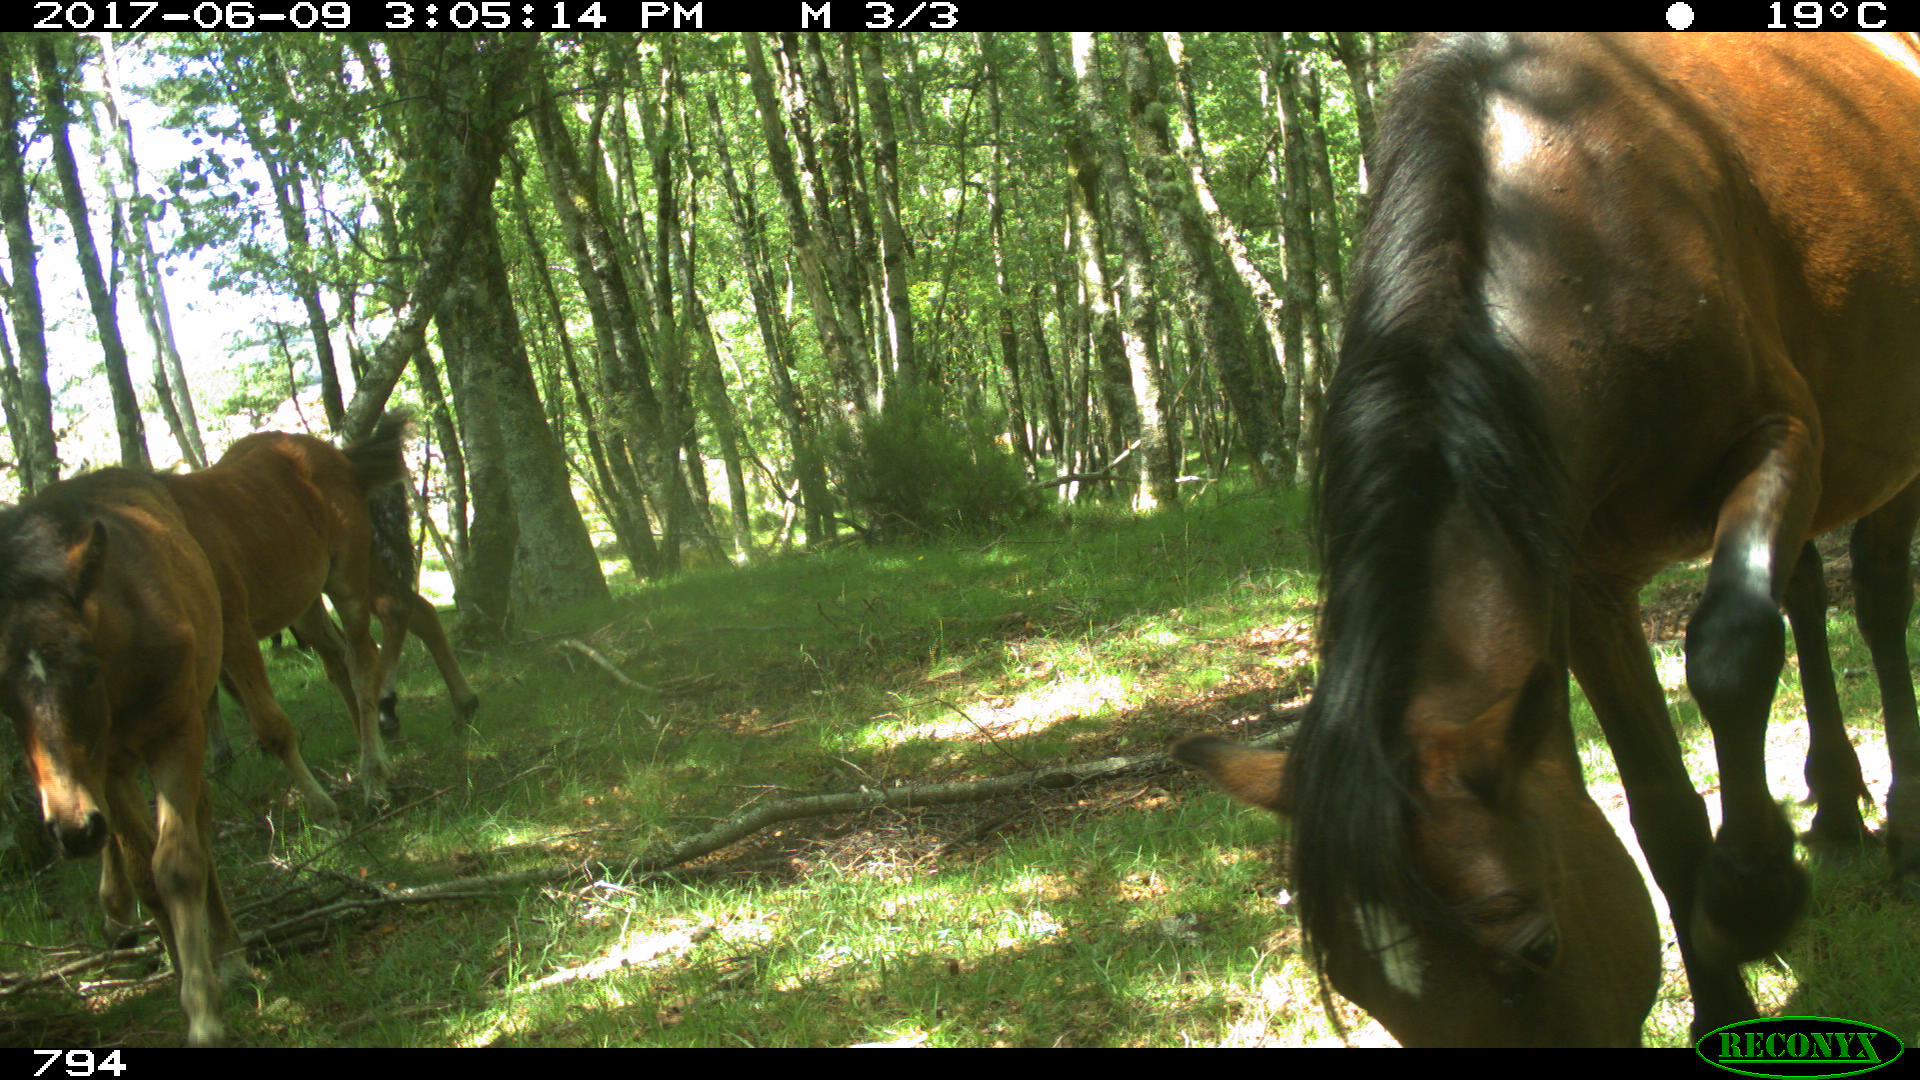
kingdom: Animalia
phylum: Chordata
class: Mammalia
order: Perissodactyla
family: Equidae
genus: Equus
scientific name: Equus caballus
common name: Horse
